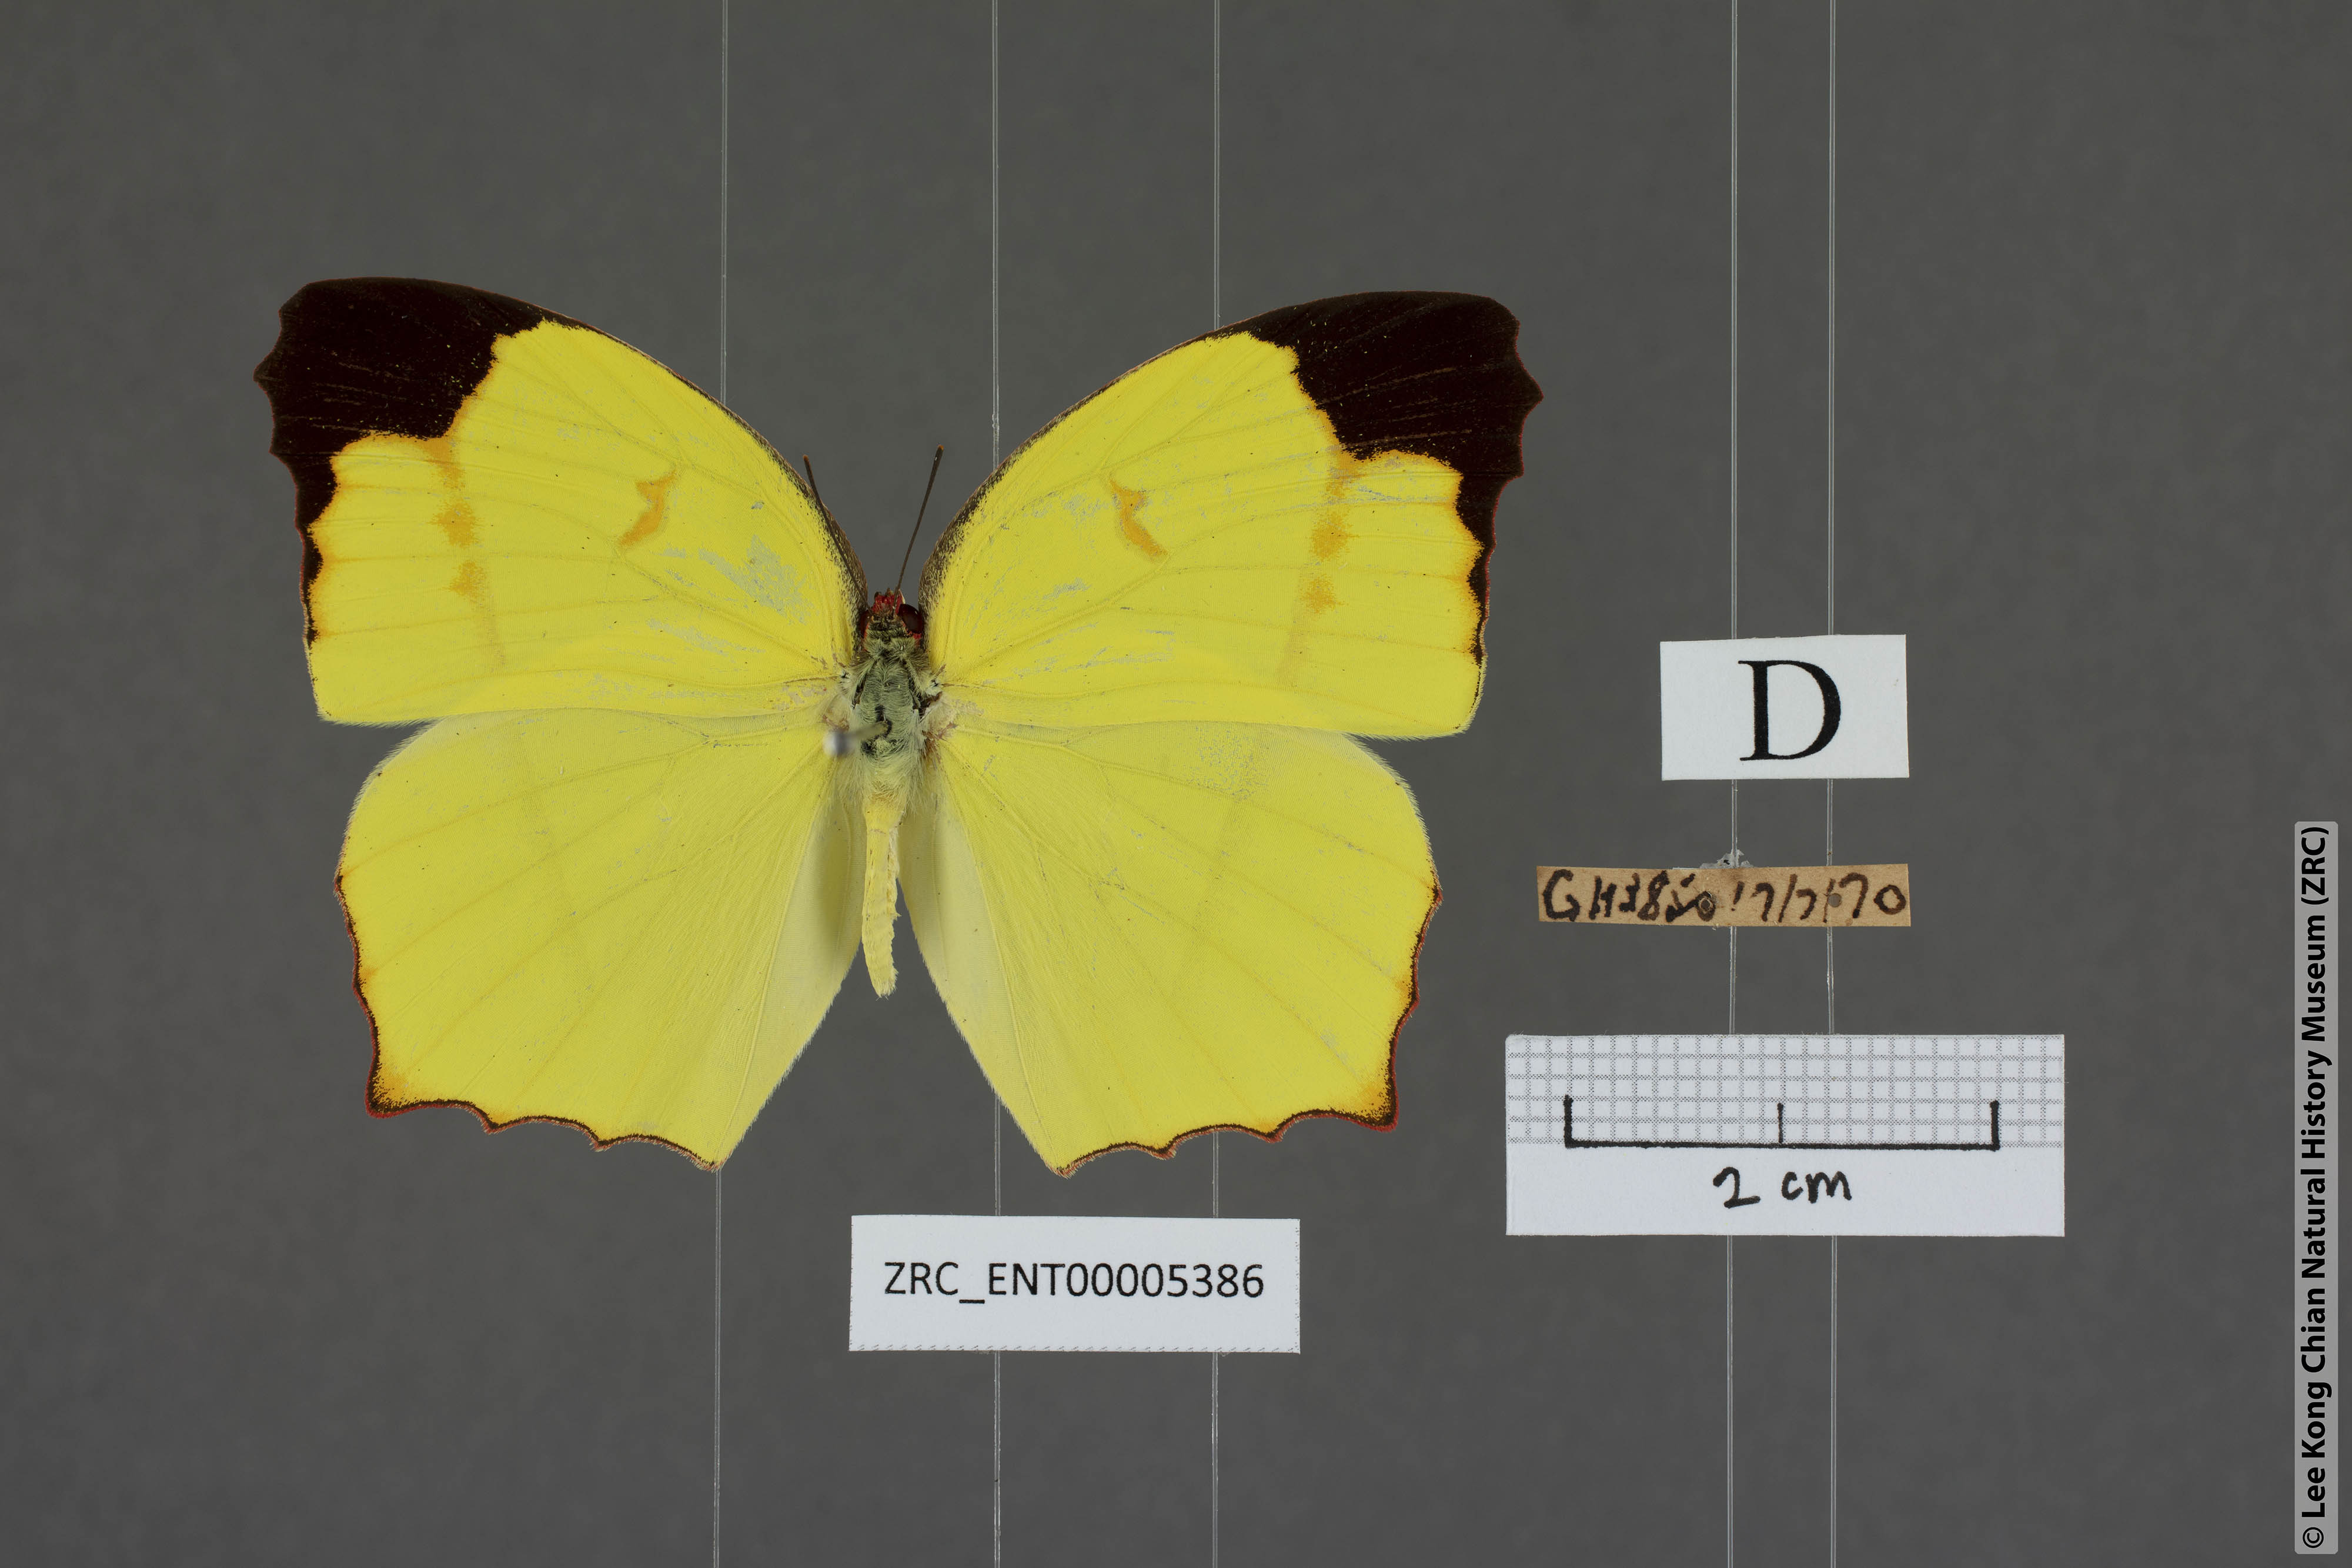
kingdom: Animalia
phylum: Arthropoda
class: Insecta
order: Lepidoptera
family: Pieridae
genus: Dercas
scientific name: Dercas verhuelli
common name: Tailed sulphur
